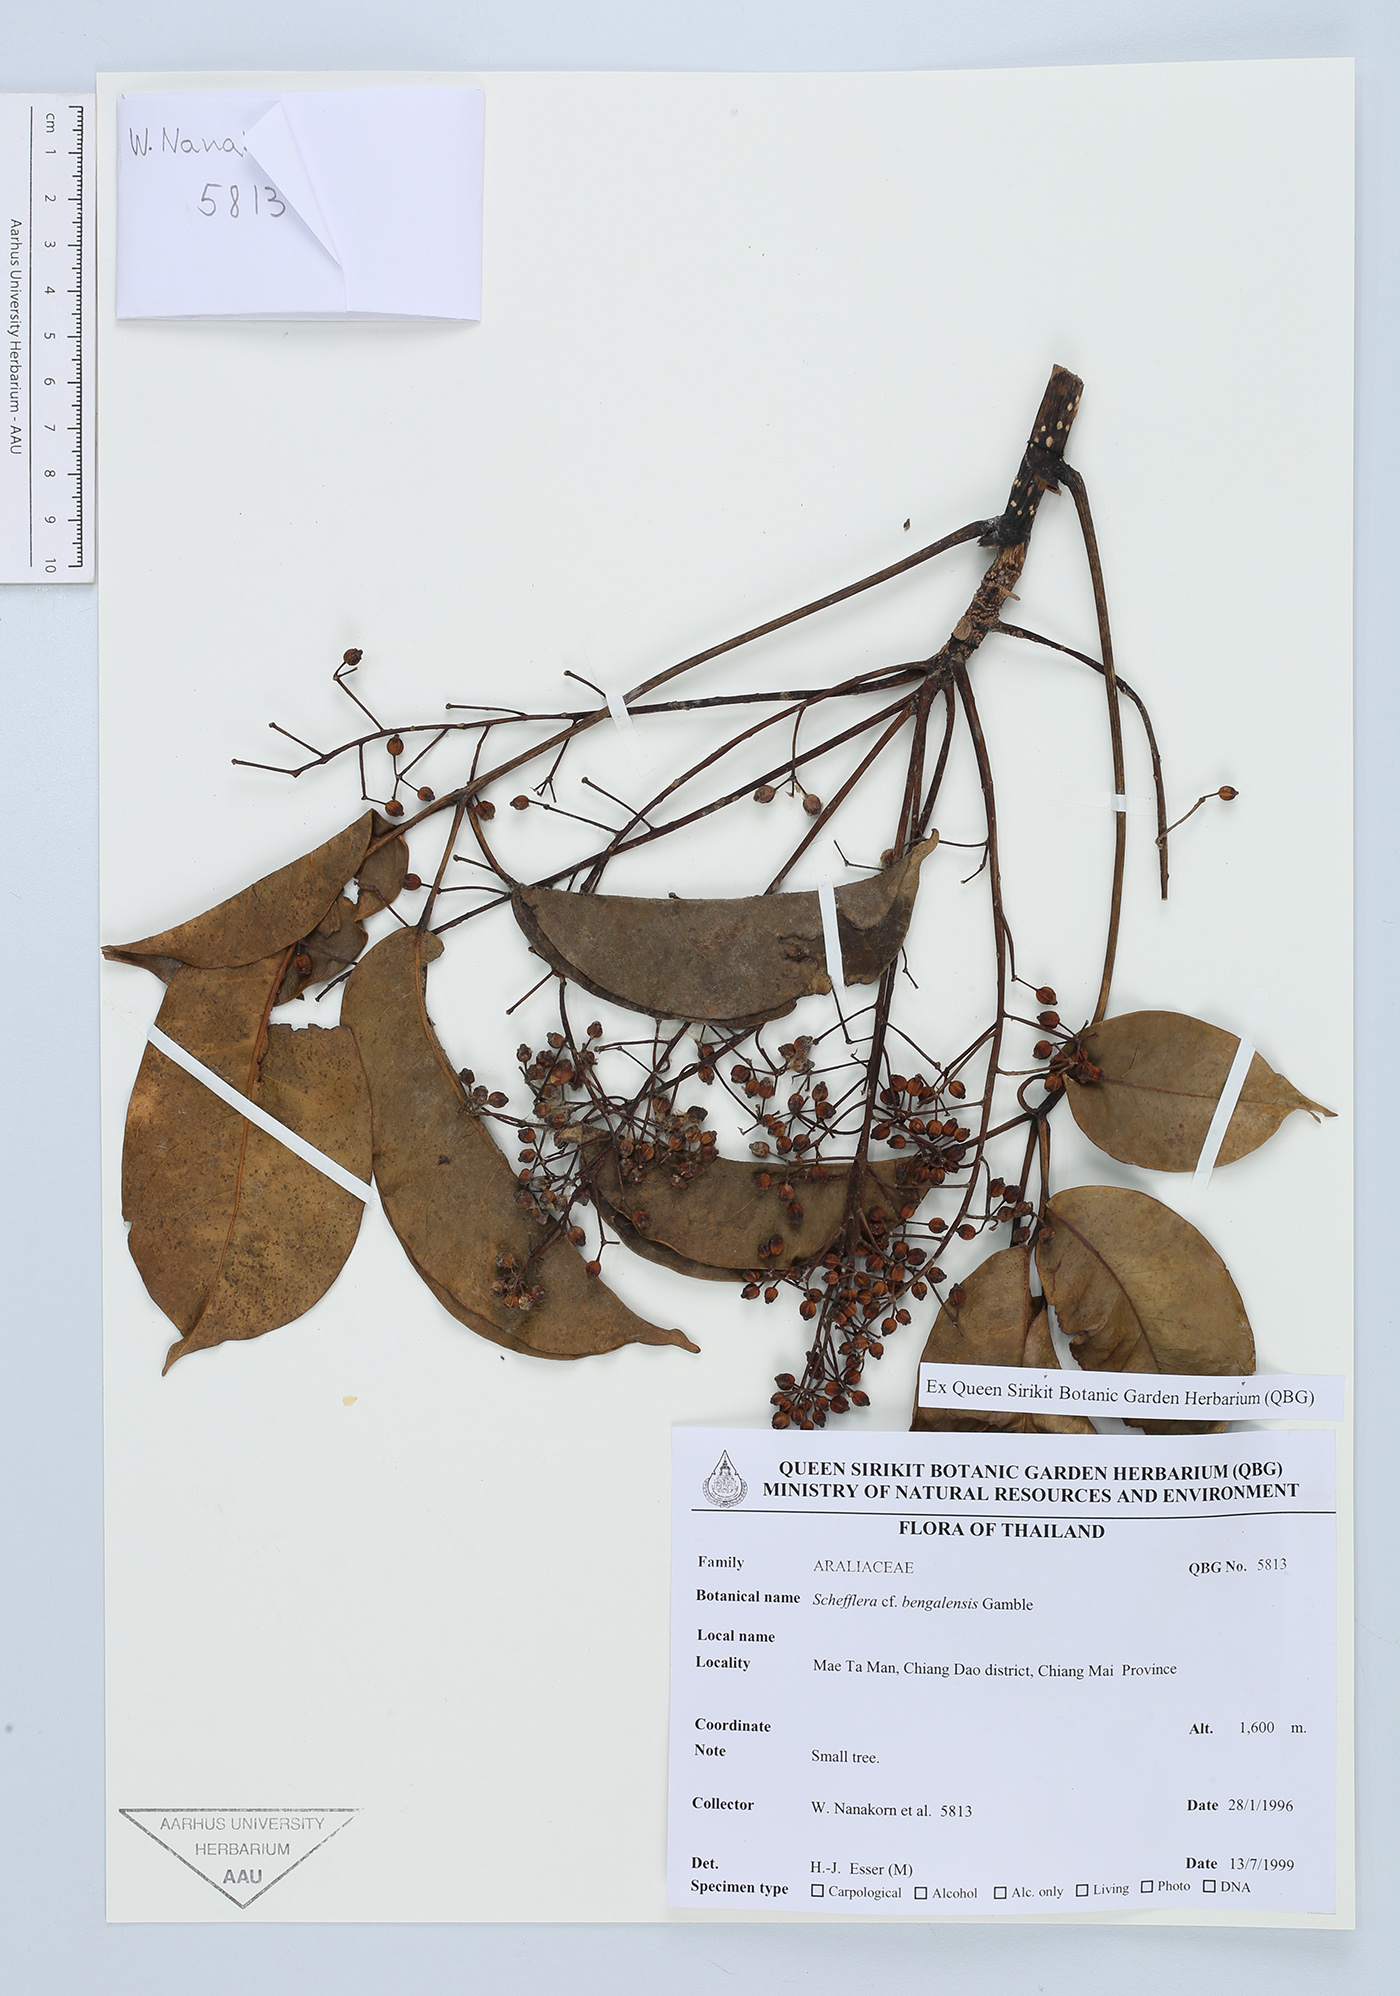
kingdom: Plantae
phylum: Tracheophyta
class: Magnoliopsida
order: Apiales
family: Araliaceae
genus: Heptapleurum
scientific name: Heptapleurum bengalense
